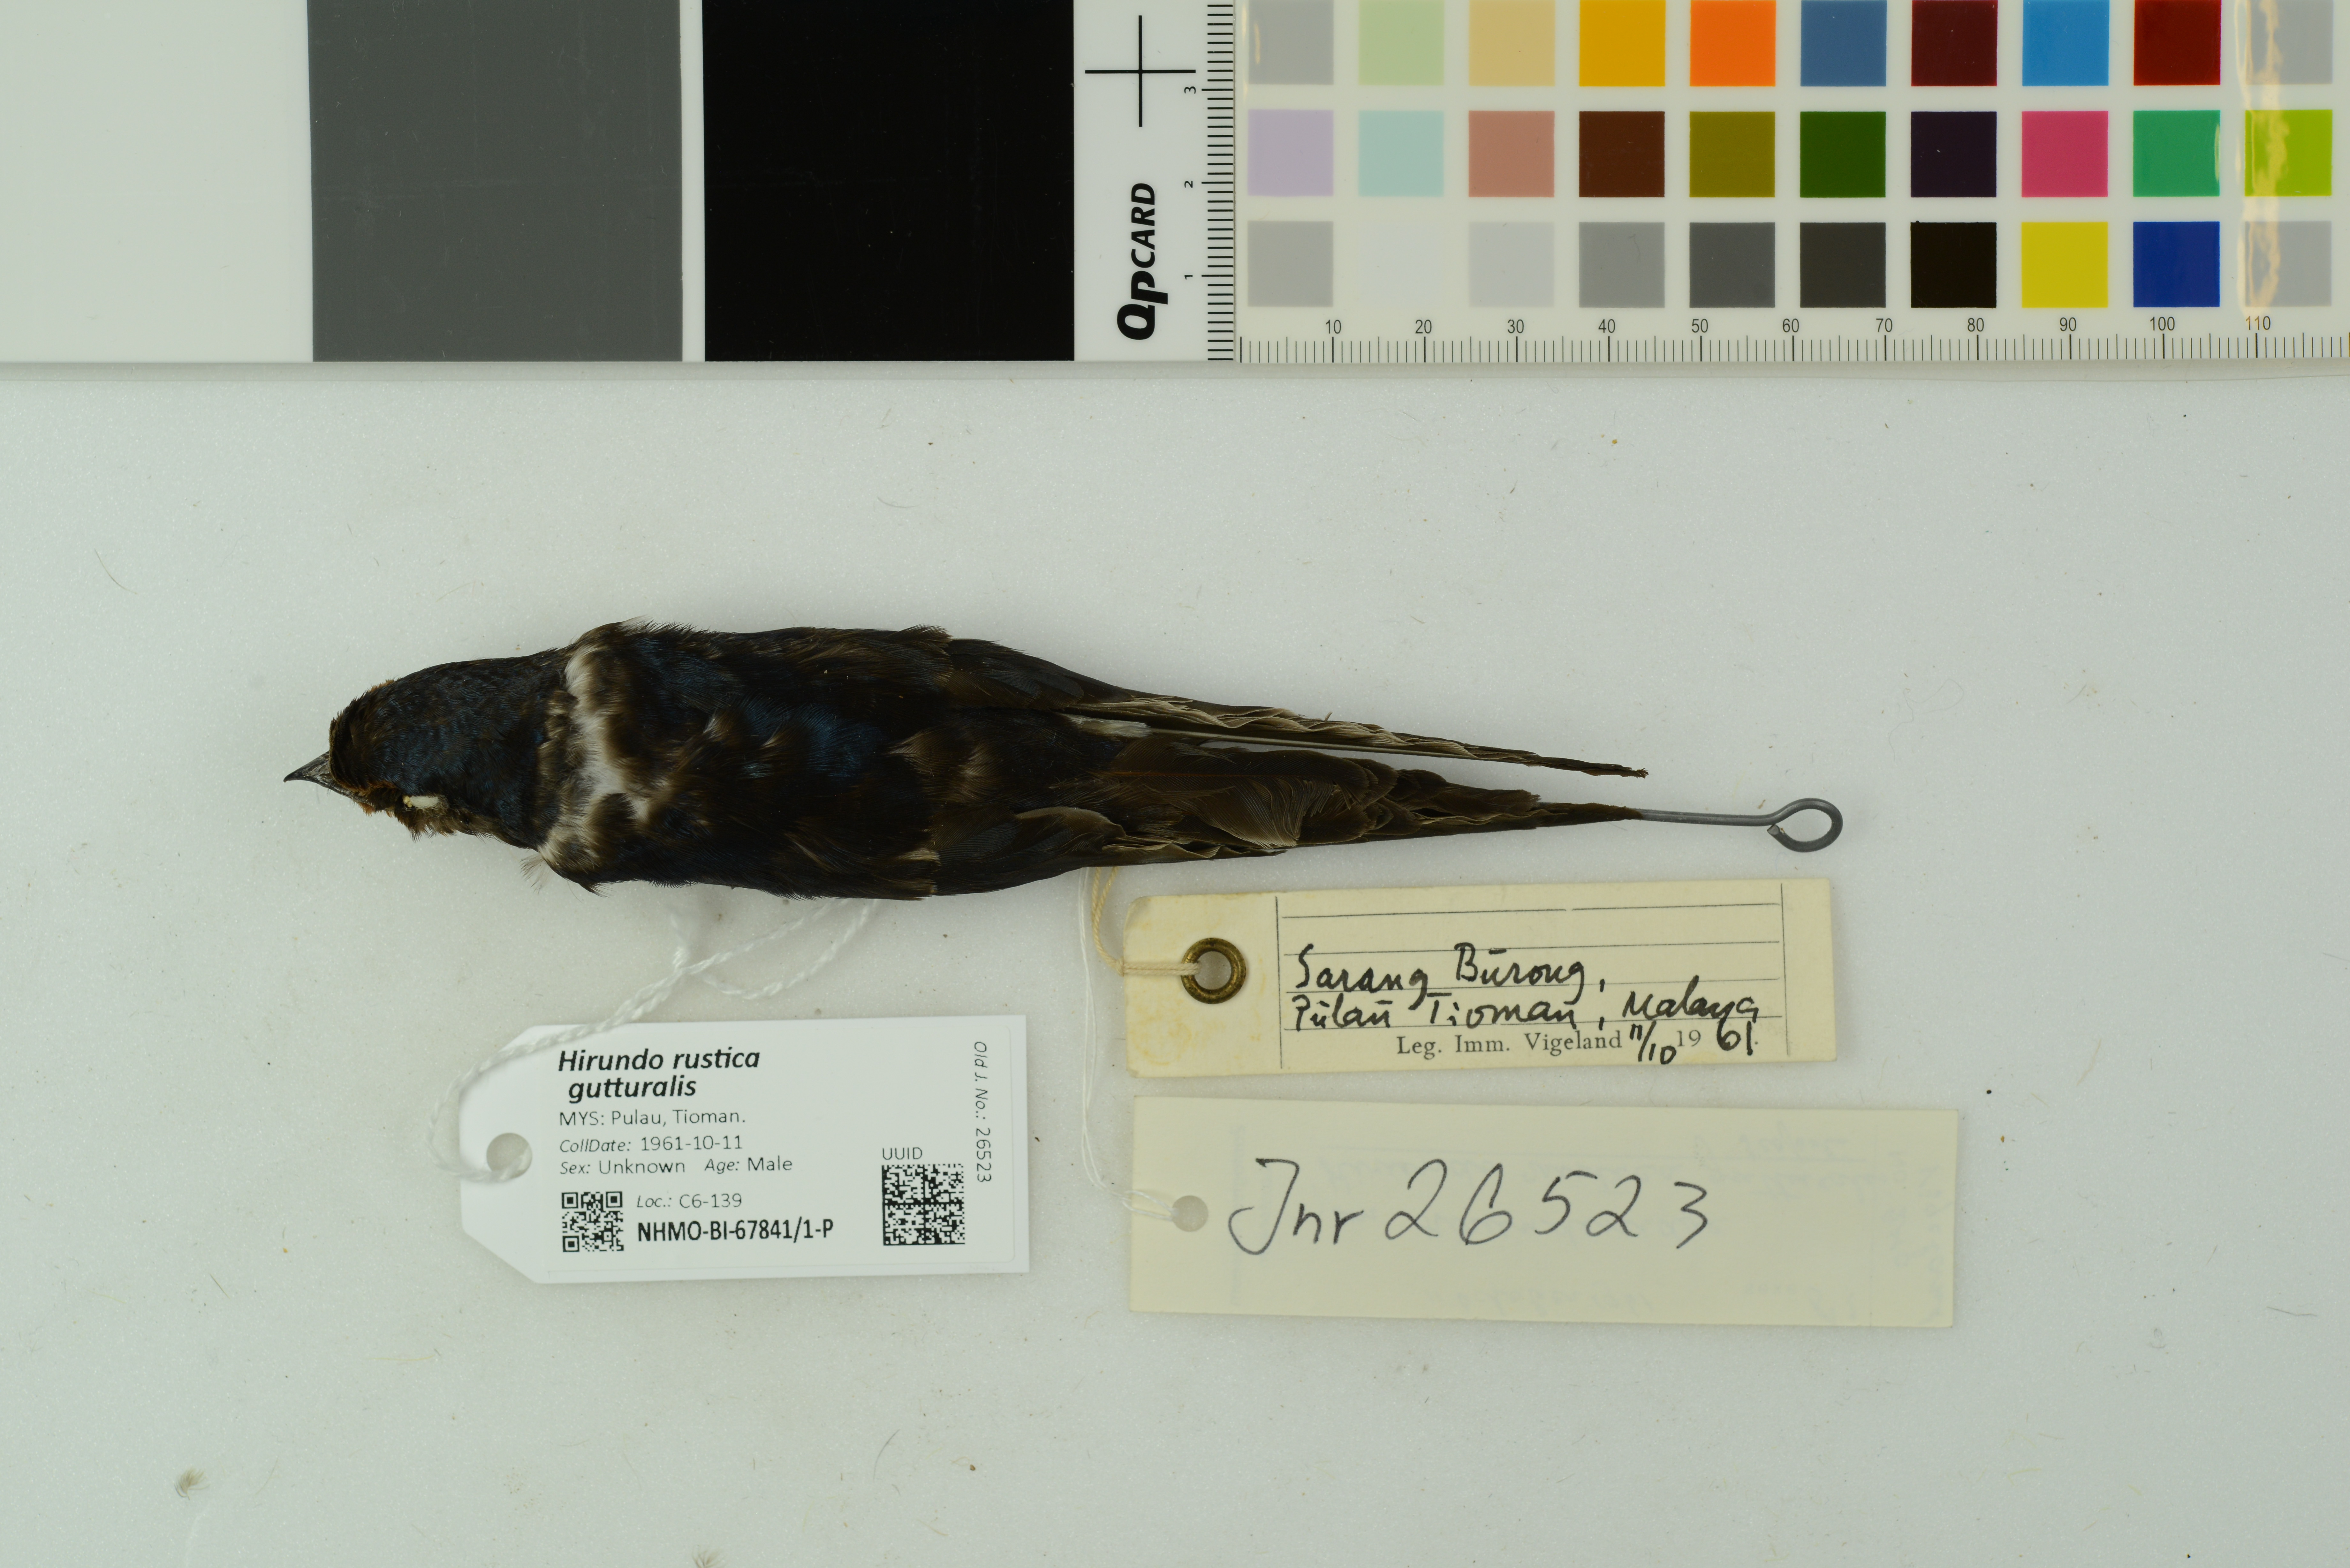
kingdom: Animalia
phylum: Chordata
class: Aves
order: Passeriformes
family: Hirundinidae
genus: Hirundo
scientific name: Hirundo rustica
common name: Barn swallow
